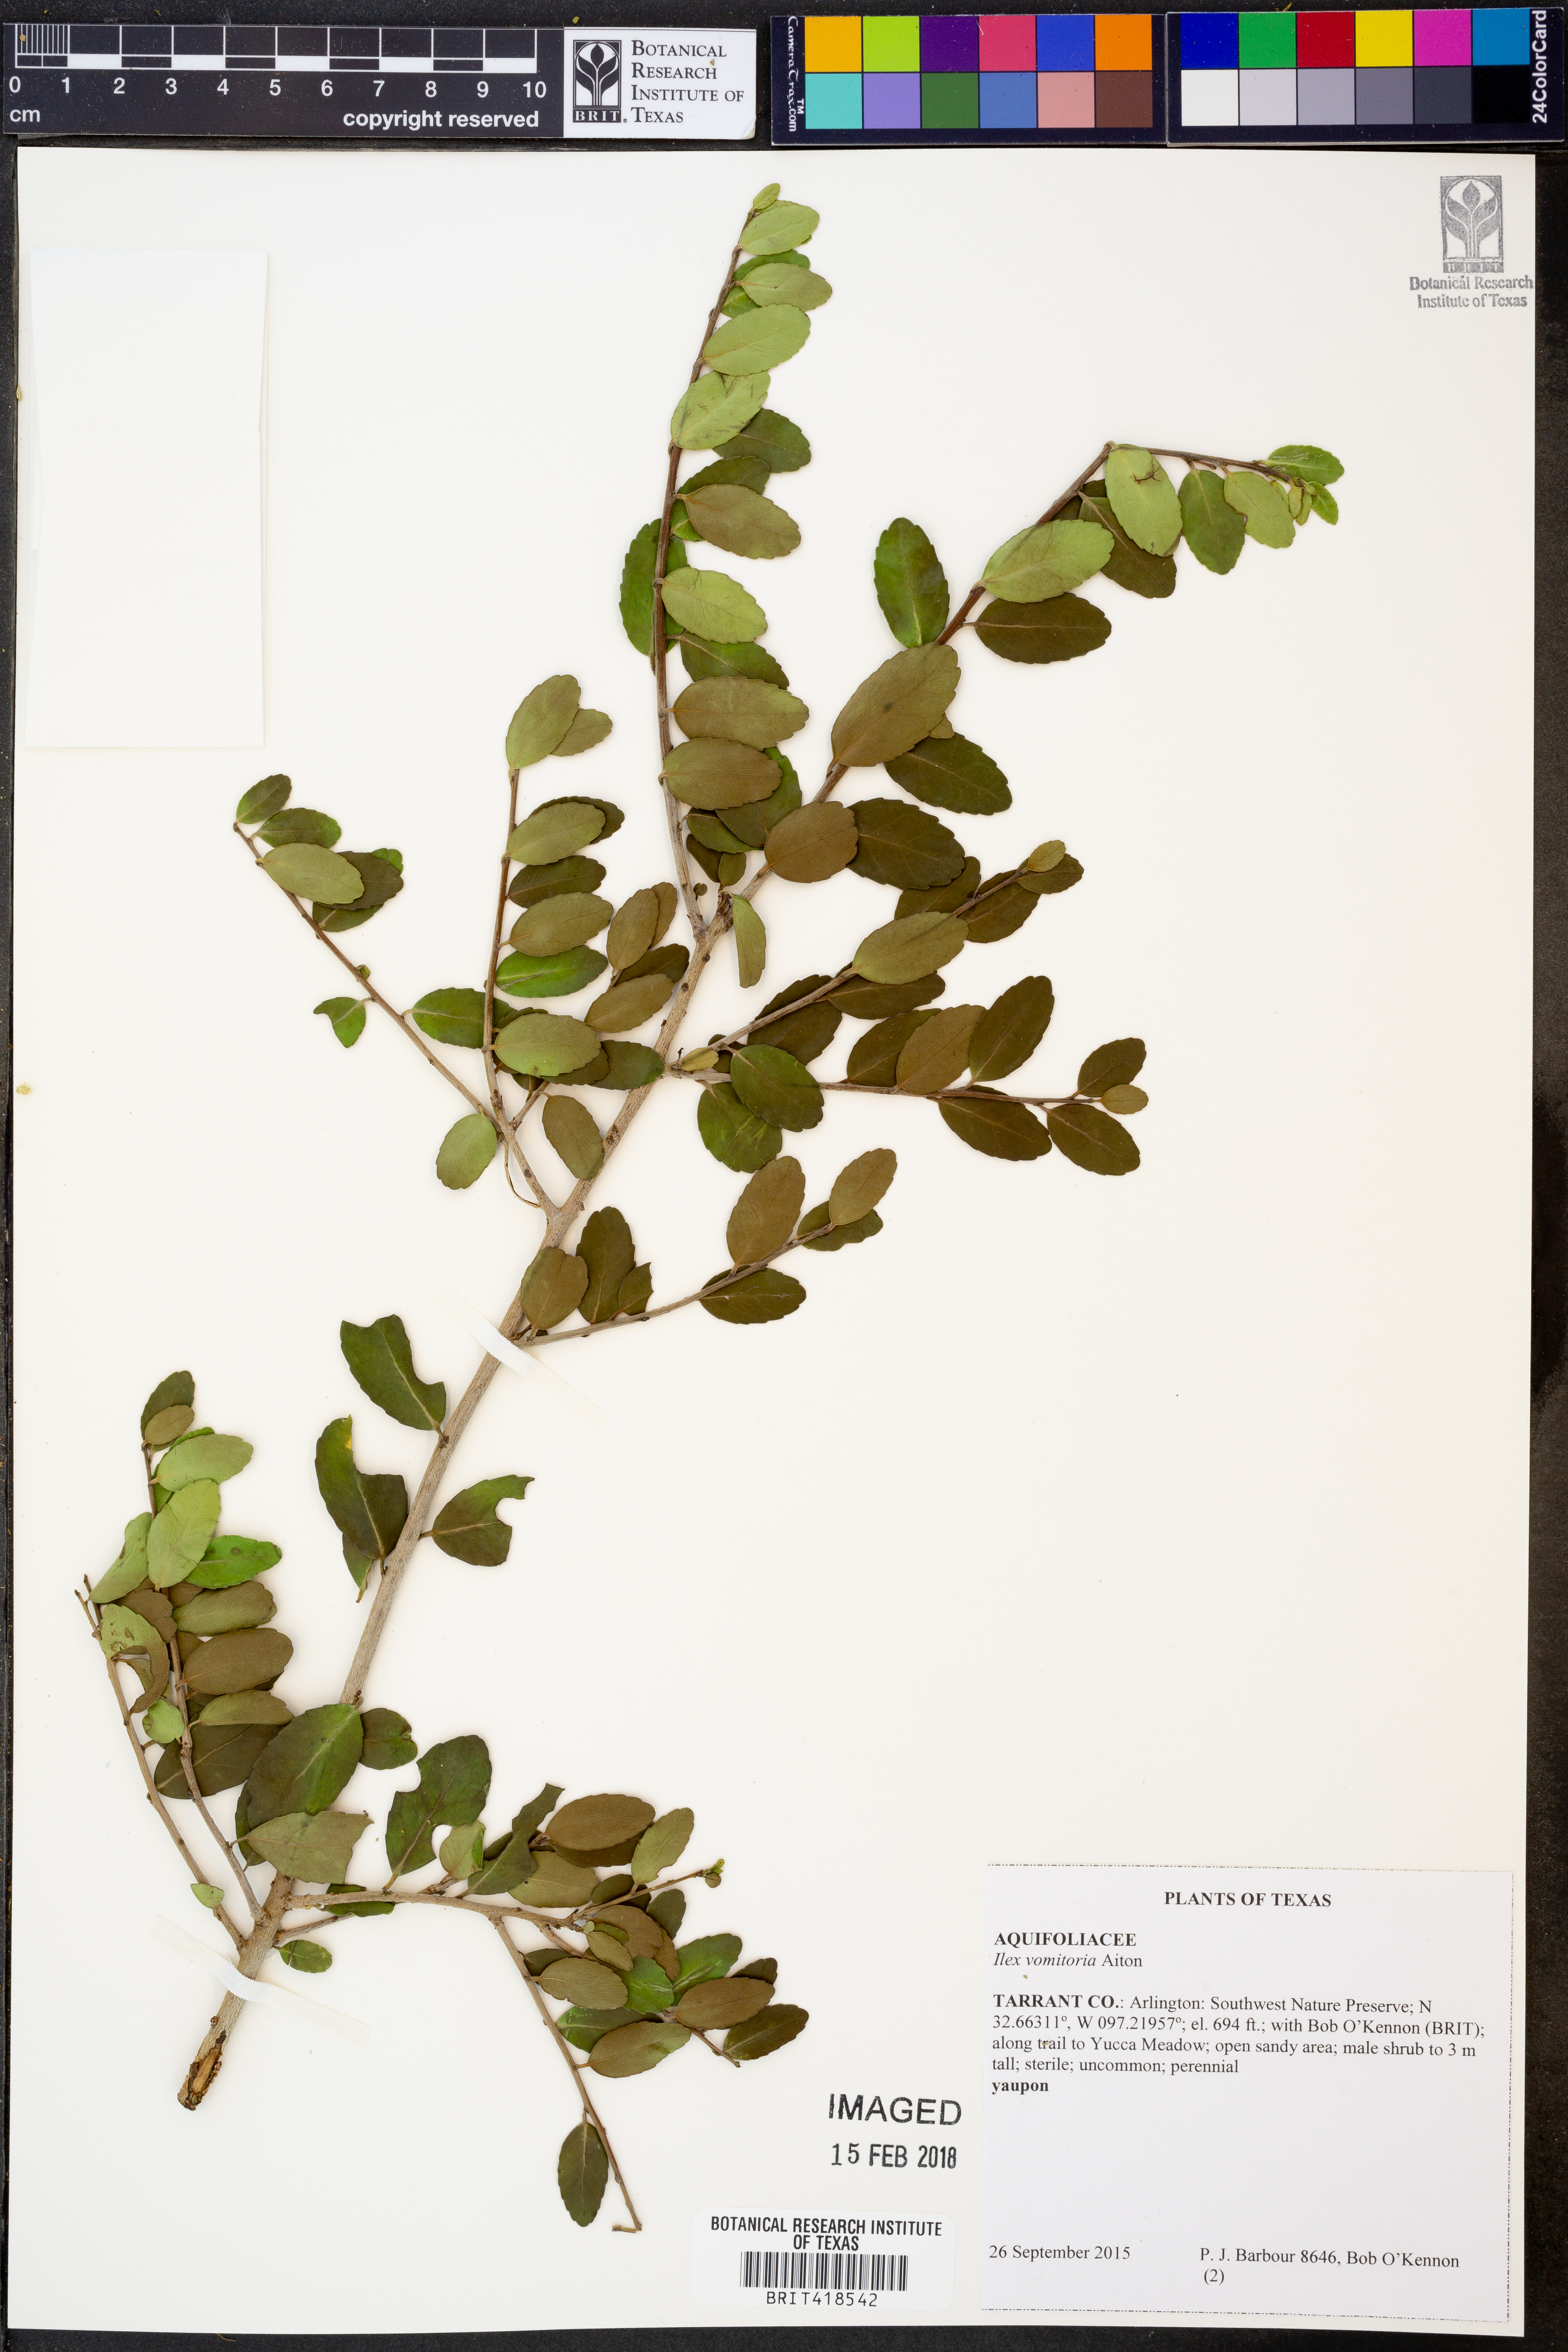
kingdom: Plantae
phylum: Tracheophyta
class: Magnoliopsida
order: Aquifoliales
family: Aquifoliaceae
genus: Ilex
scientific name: Ilex vomitoria
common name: Yaupon holly
